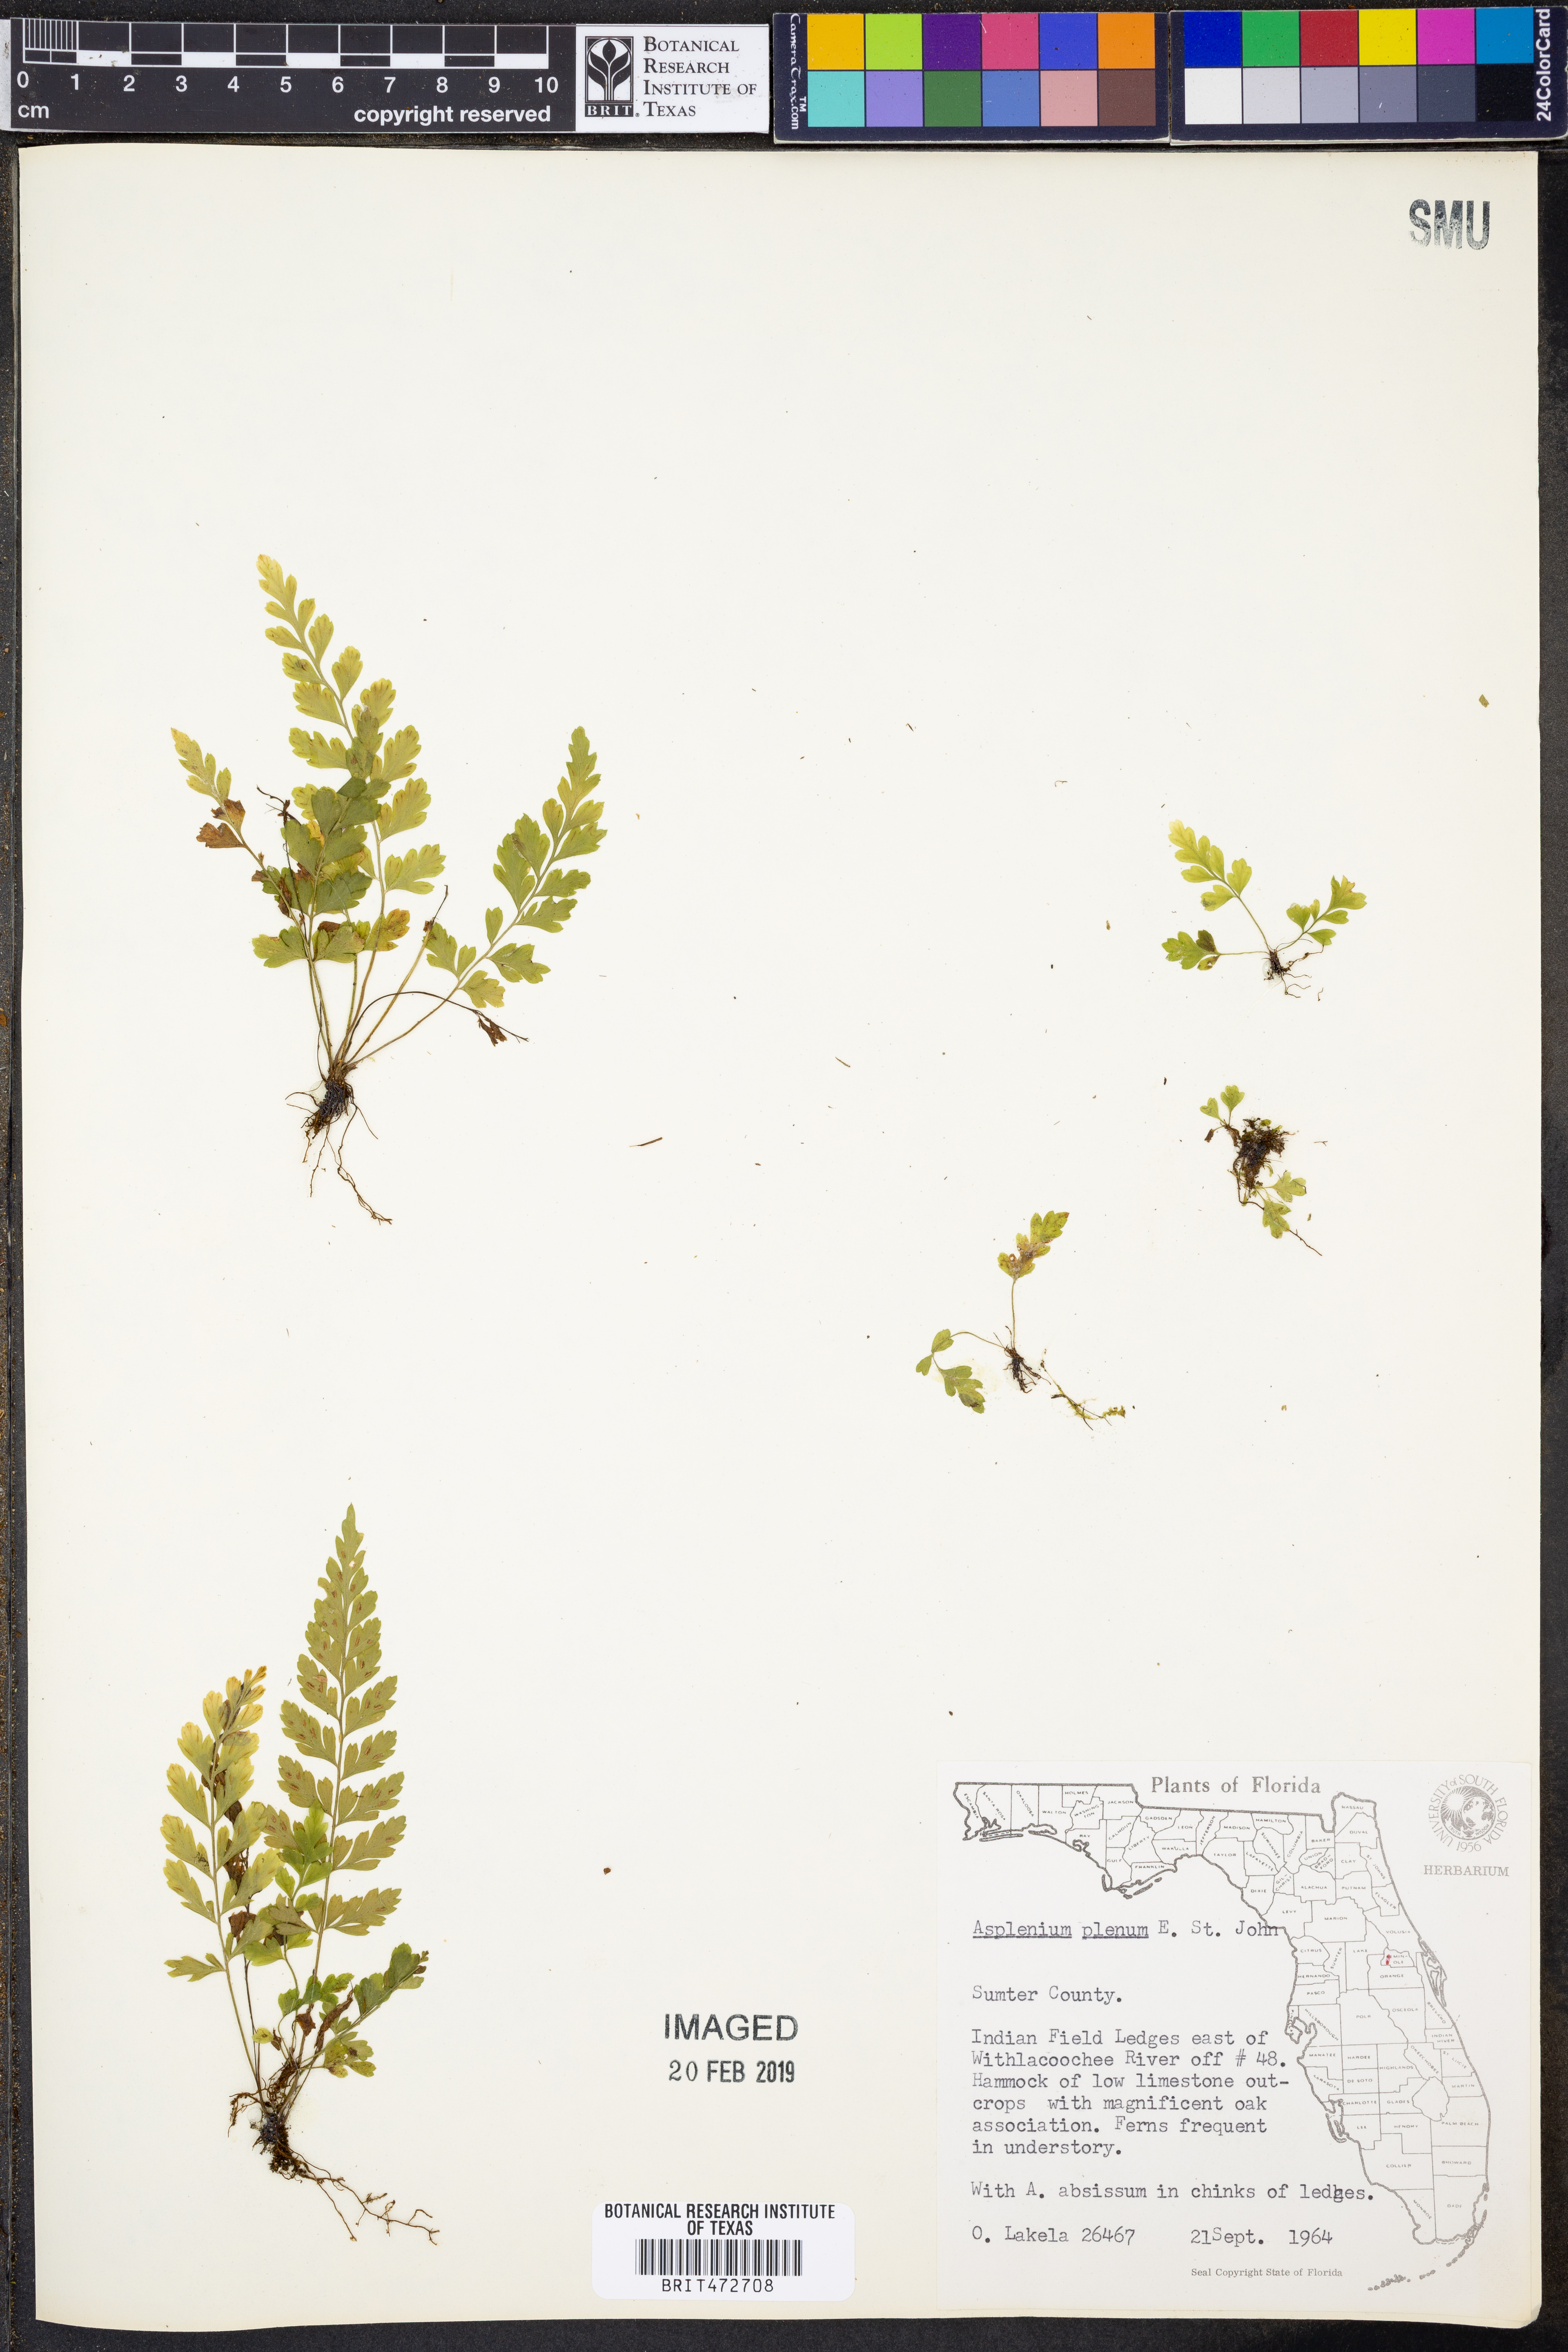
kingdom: Plantae
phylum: Tracheophyta
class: Polypodiopsida
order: Polypodiales
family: Aspleniaceae
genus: Asplenium
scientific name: Asplenium plenum
